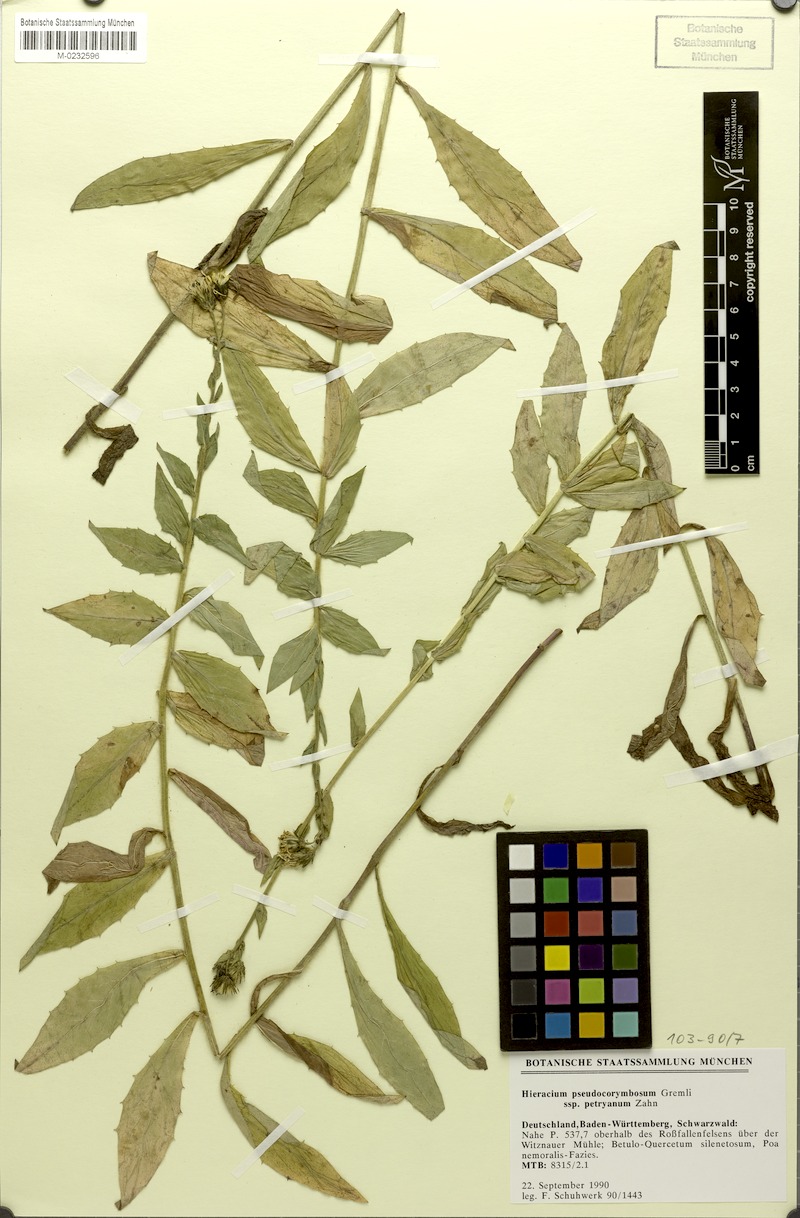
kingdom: Plantae
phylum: Tracheophyta
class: Magnoliopsida
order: Asterales
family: Asteraceae
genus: Hieracium
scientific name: Hieracium pseudocorymbosum
